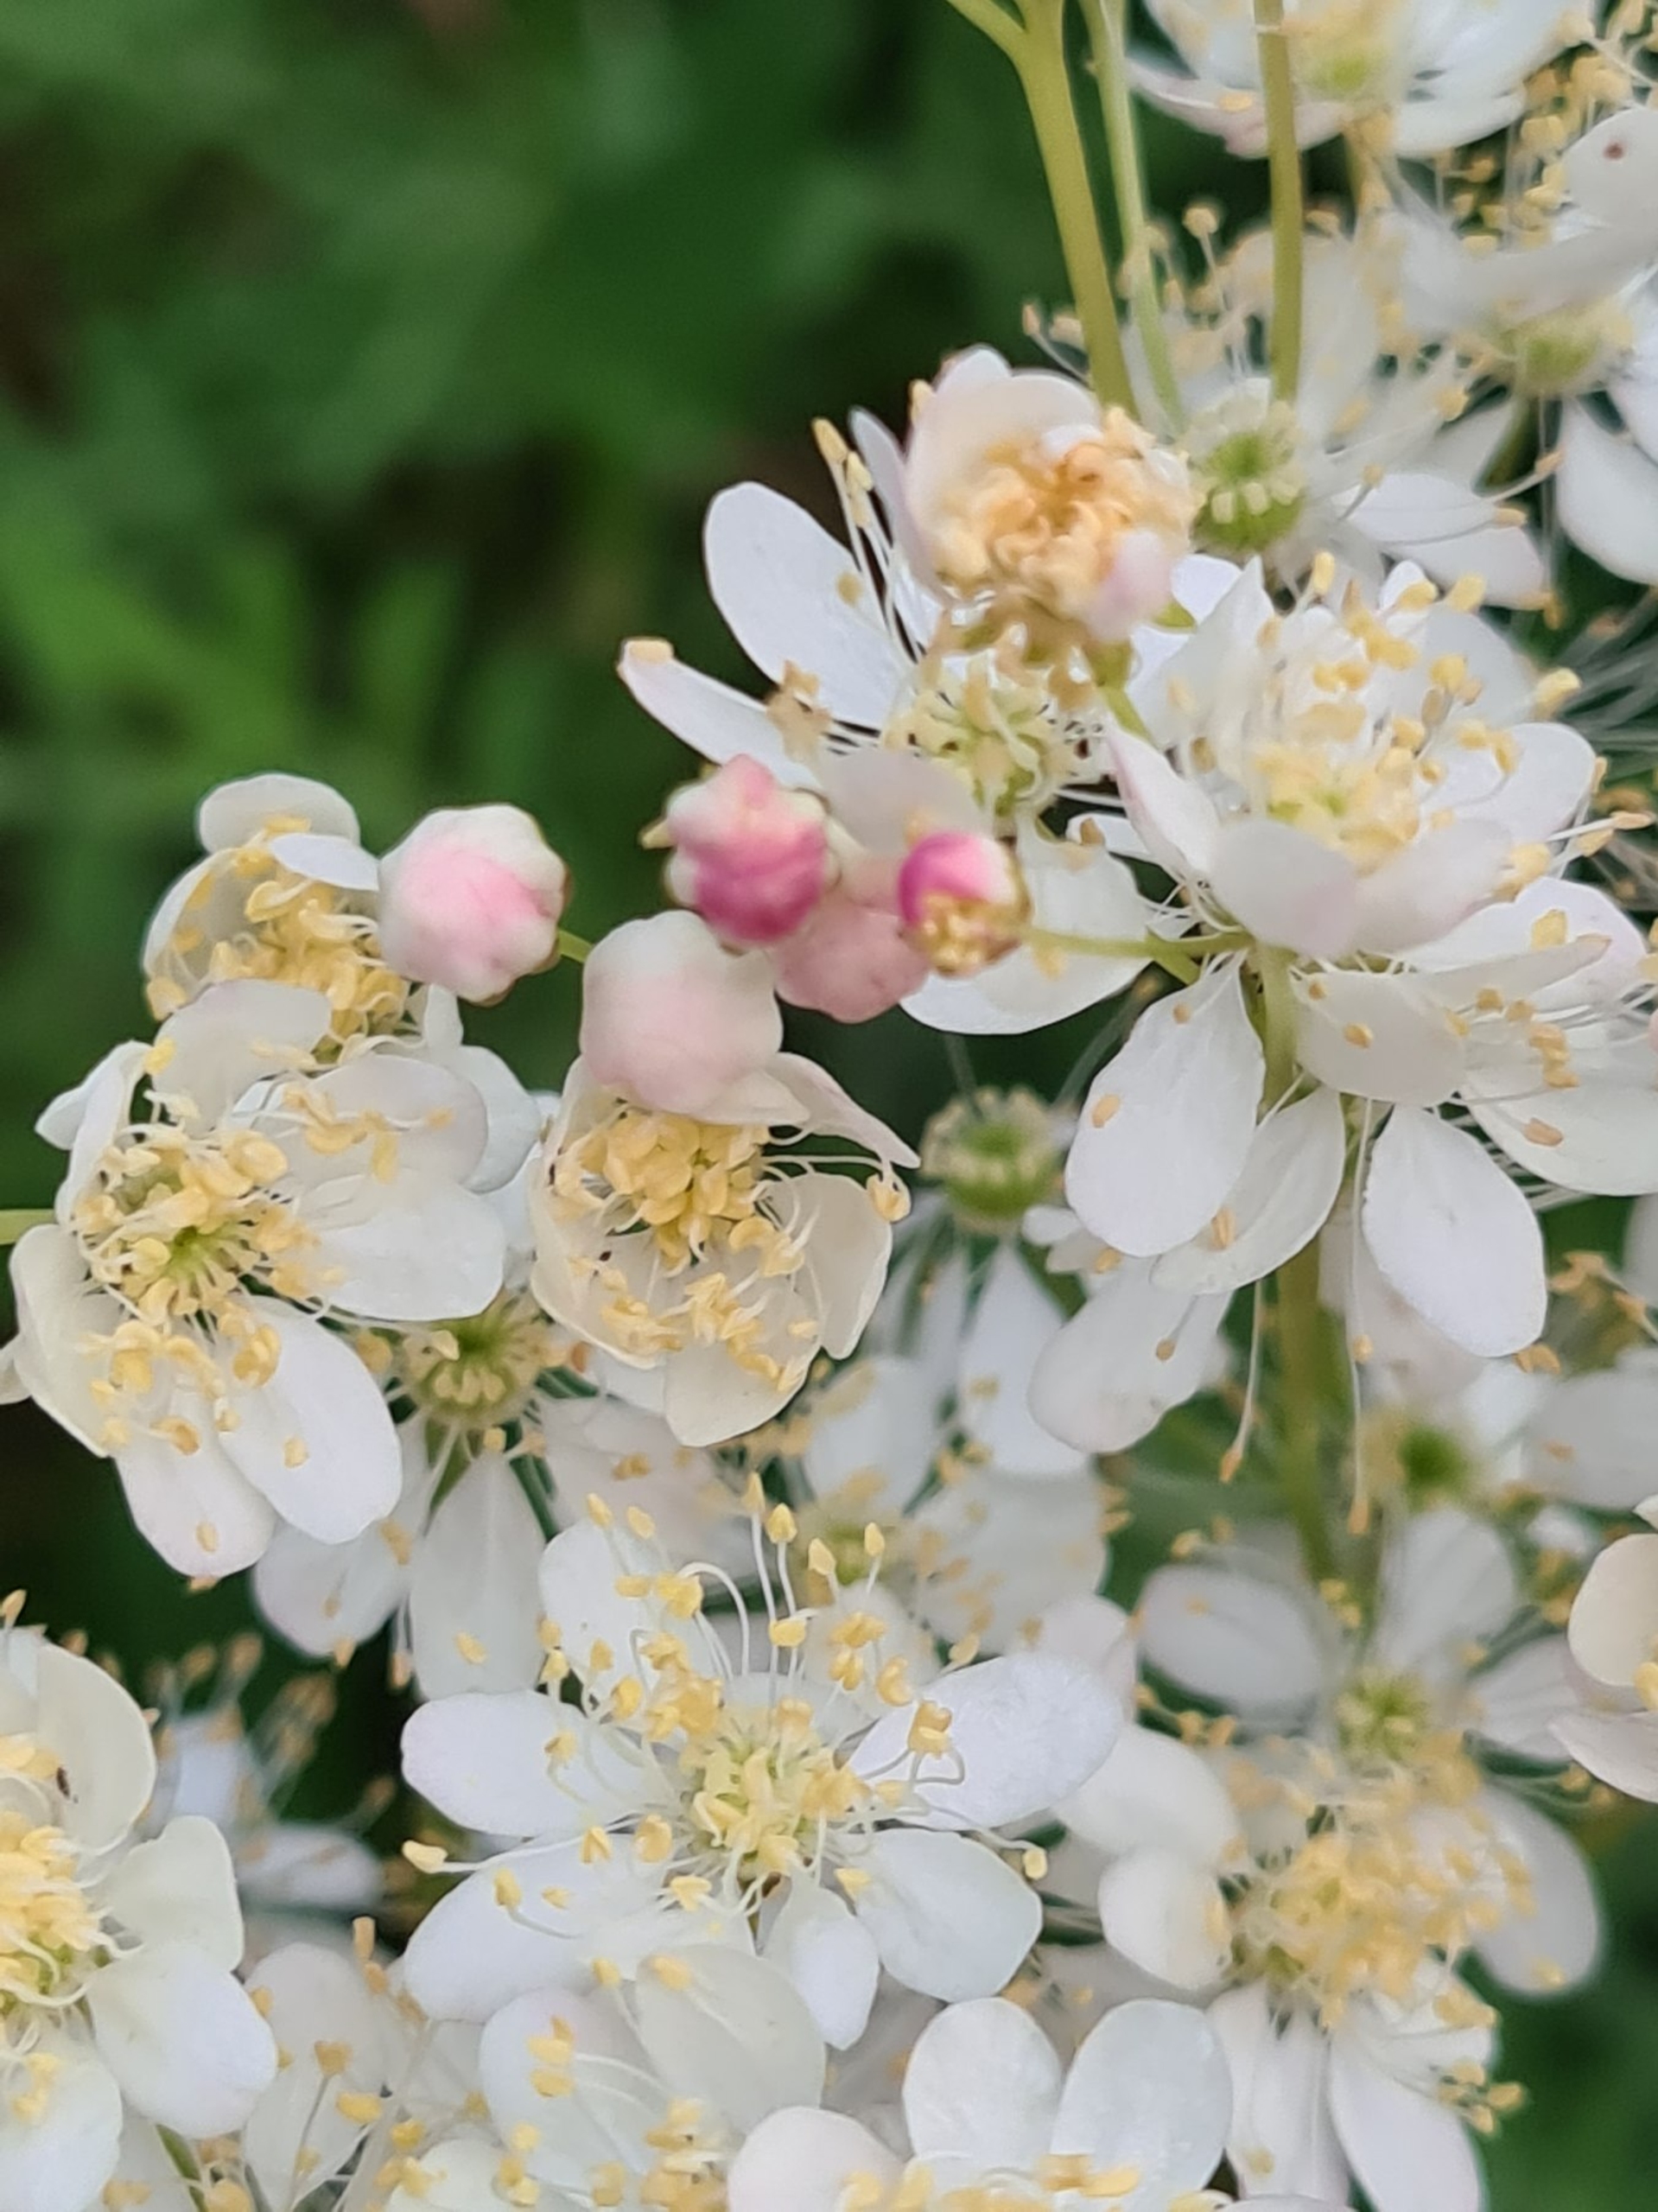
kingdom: Plantae
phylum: Tracheophyta
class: Magnoliopsida
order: Rosales
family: Rosaceae
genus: Filipendula
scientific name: Filipendula vulgaris
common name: Knoldet mjødurt
